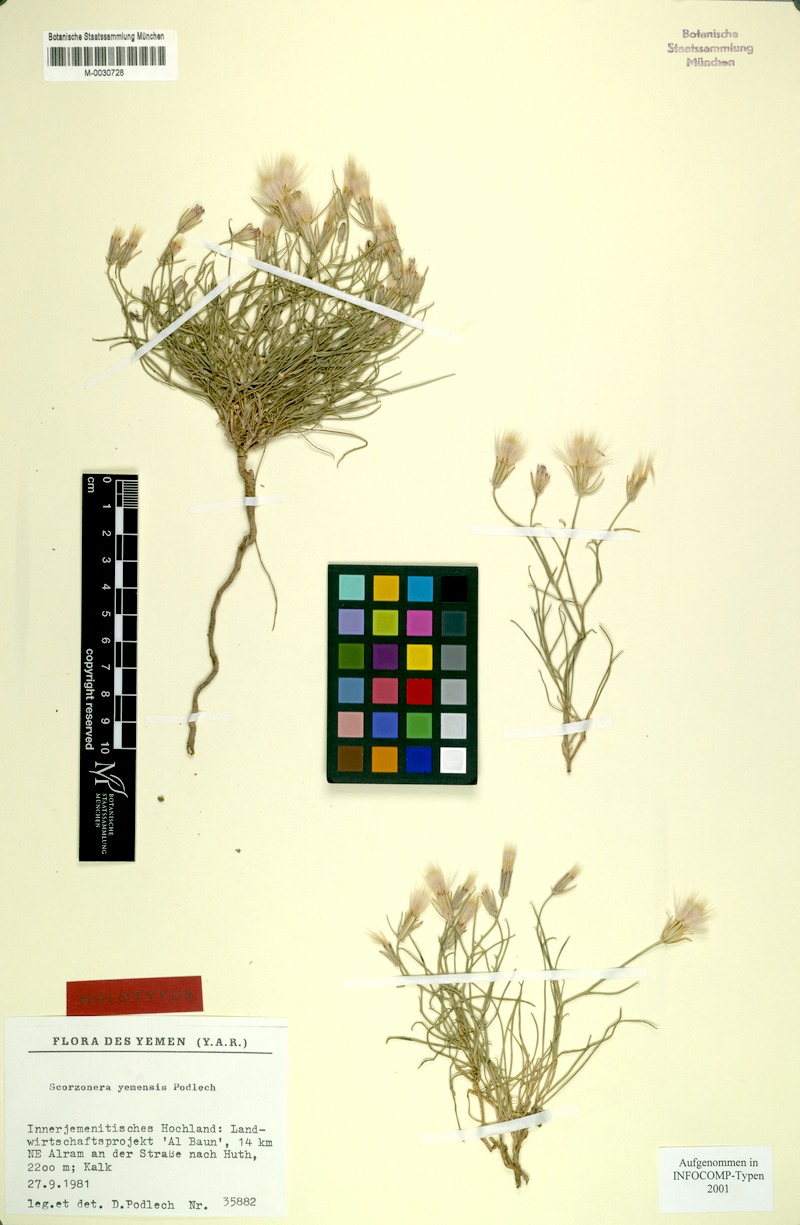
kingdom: Plantae
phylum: Tracheophyta
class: Magnoliopsida
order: Asterales
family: Asteraceae
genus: Ramaliella
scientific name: Ramaliella musilii
